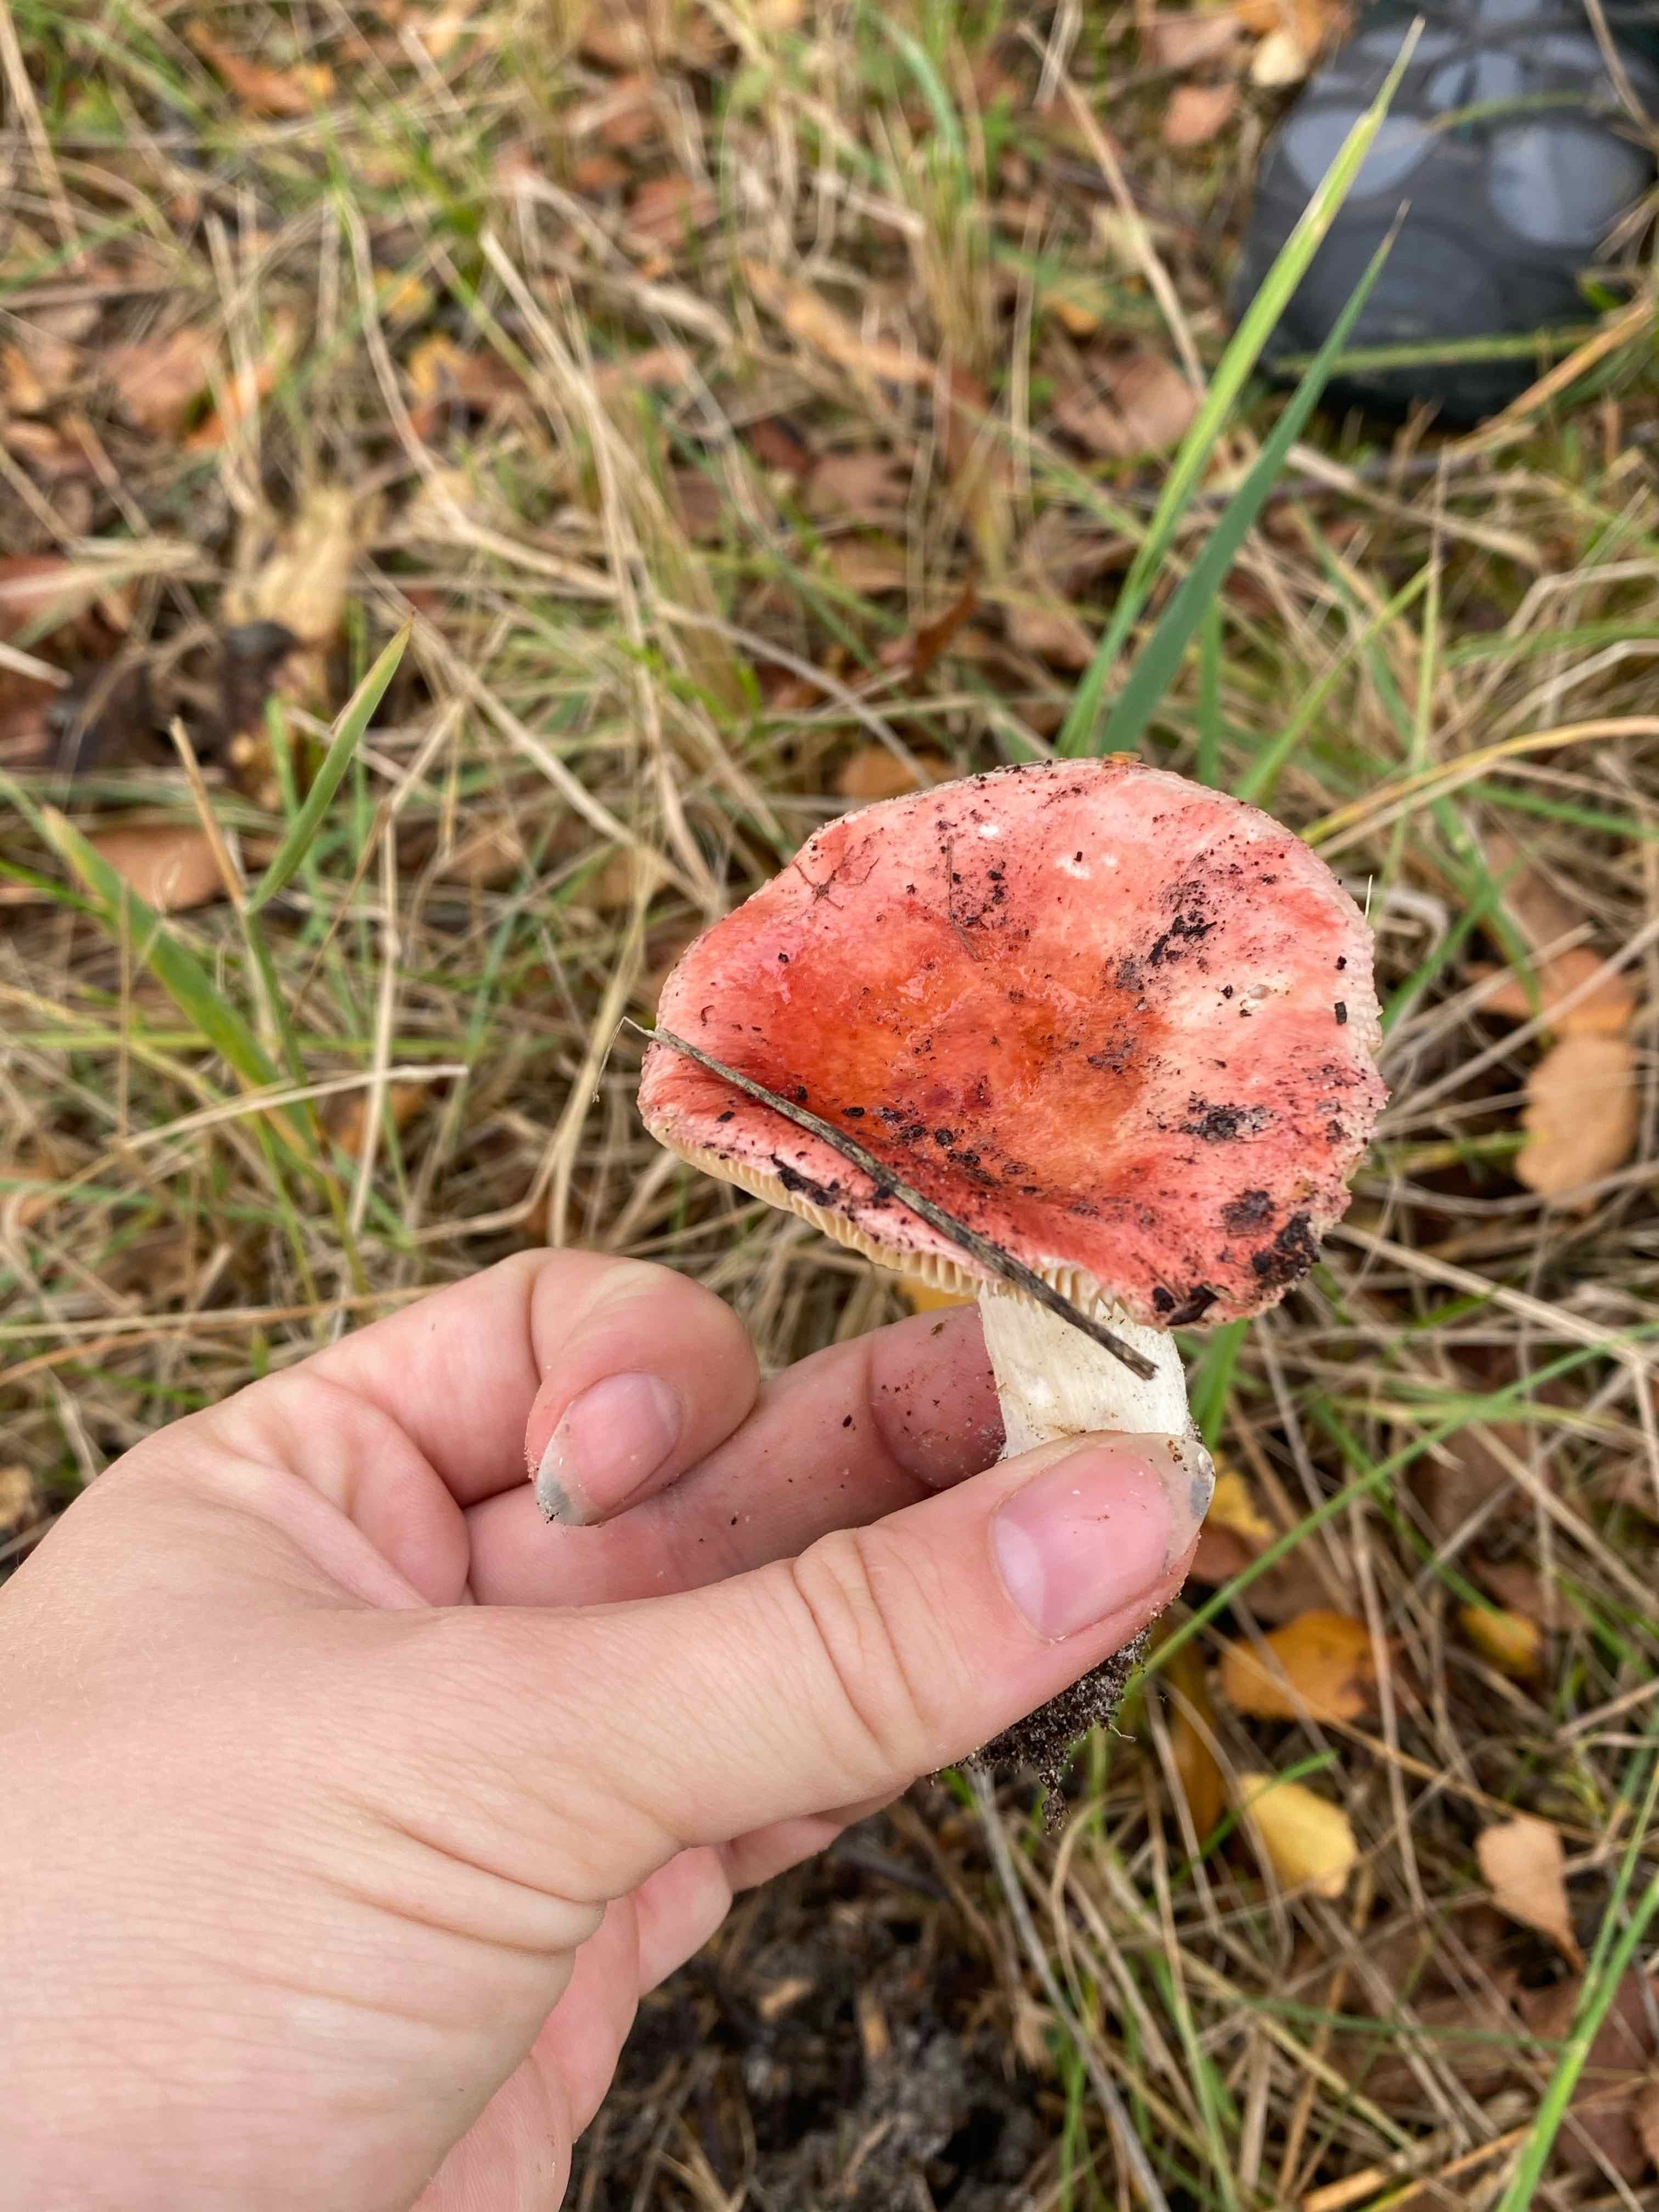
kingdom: Fungi
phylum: Basidiomycota
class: Agaricomycetes
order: Russulales
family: Russulaceae
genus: Russula
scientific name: Russula velenovskyi
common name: orangerød skørhat
